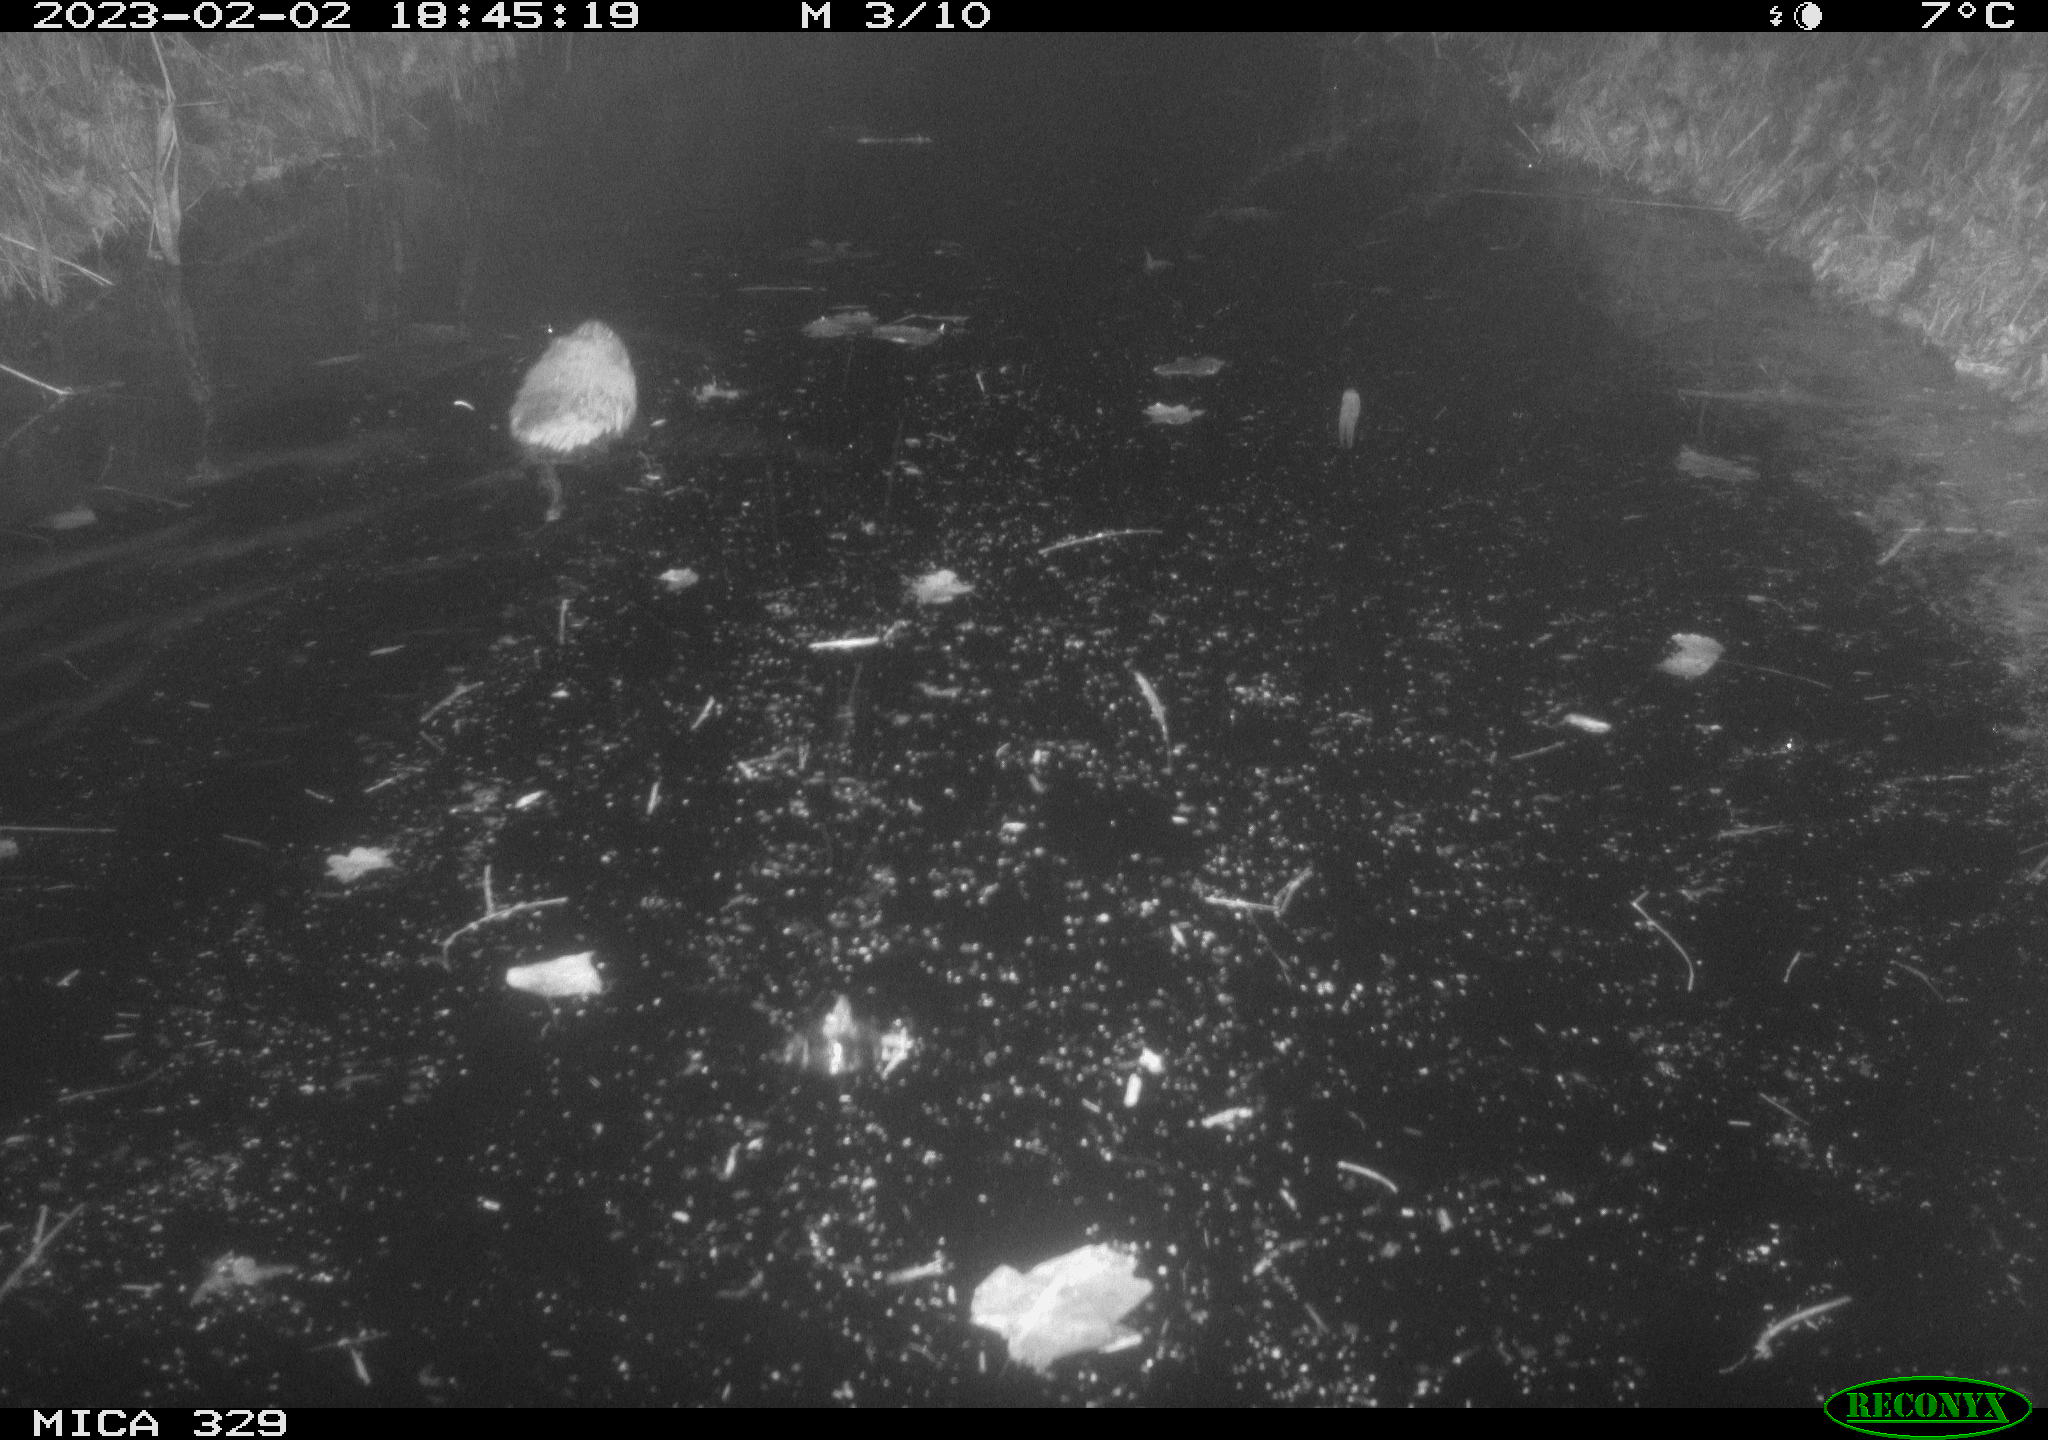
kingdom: Animalia
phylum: Chordata
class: Mammalia
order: Rodentia
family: Cricetidae
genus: Ondatra
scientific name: Ondatra zibethicus
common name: Muskrat
